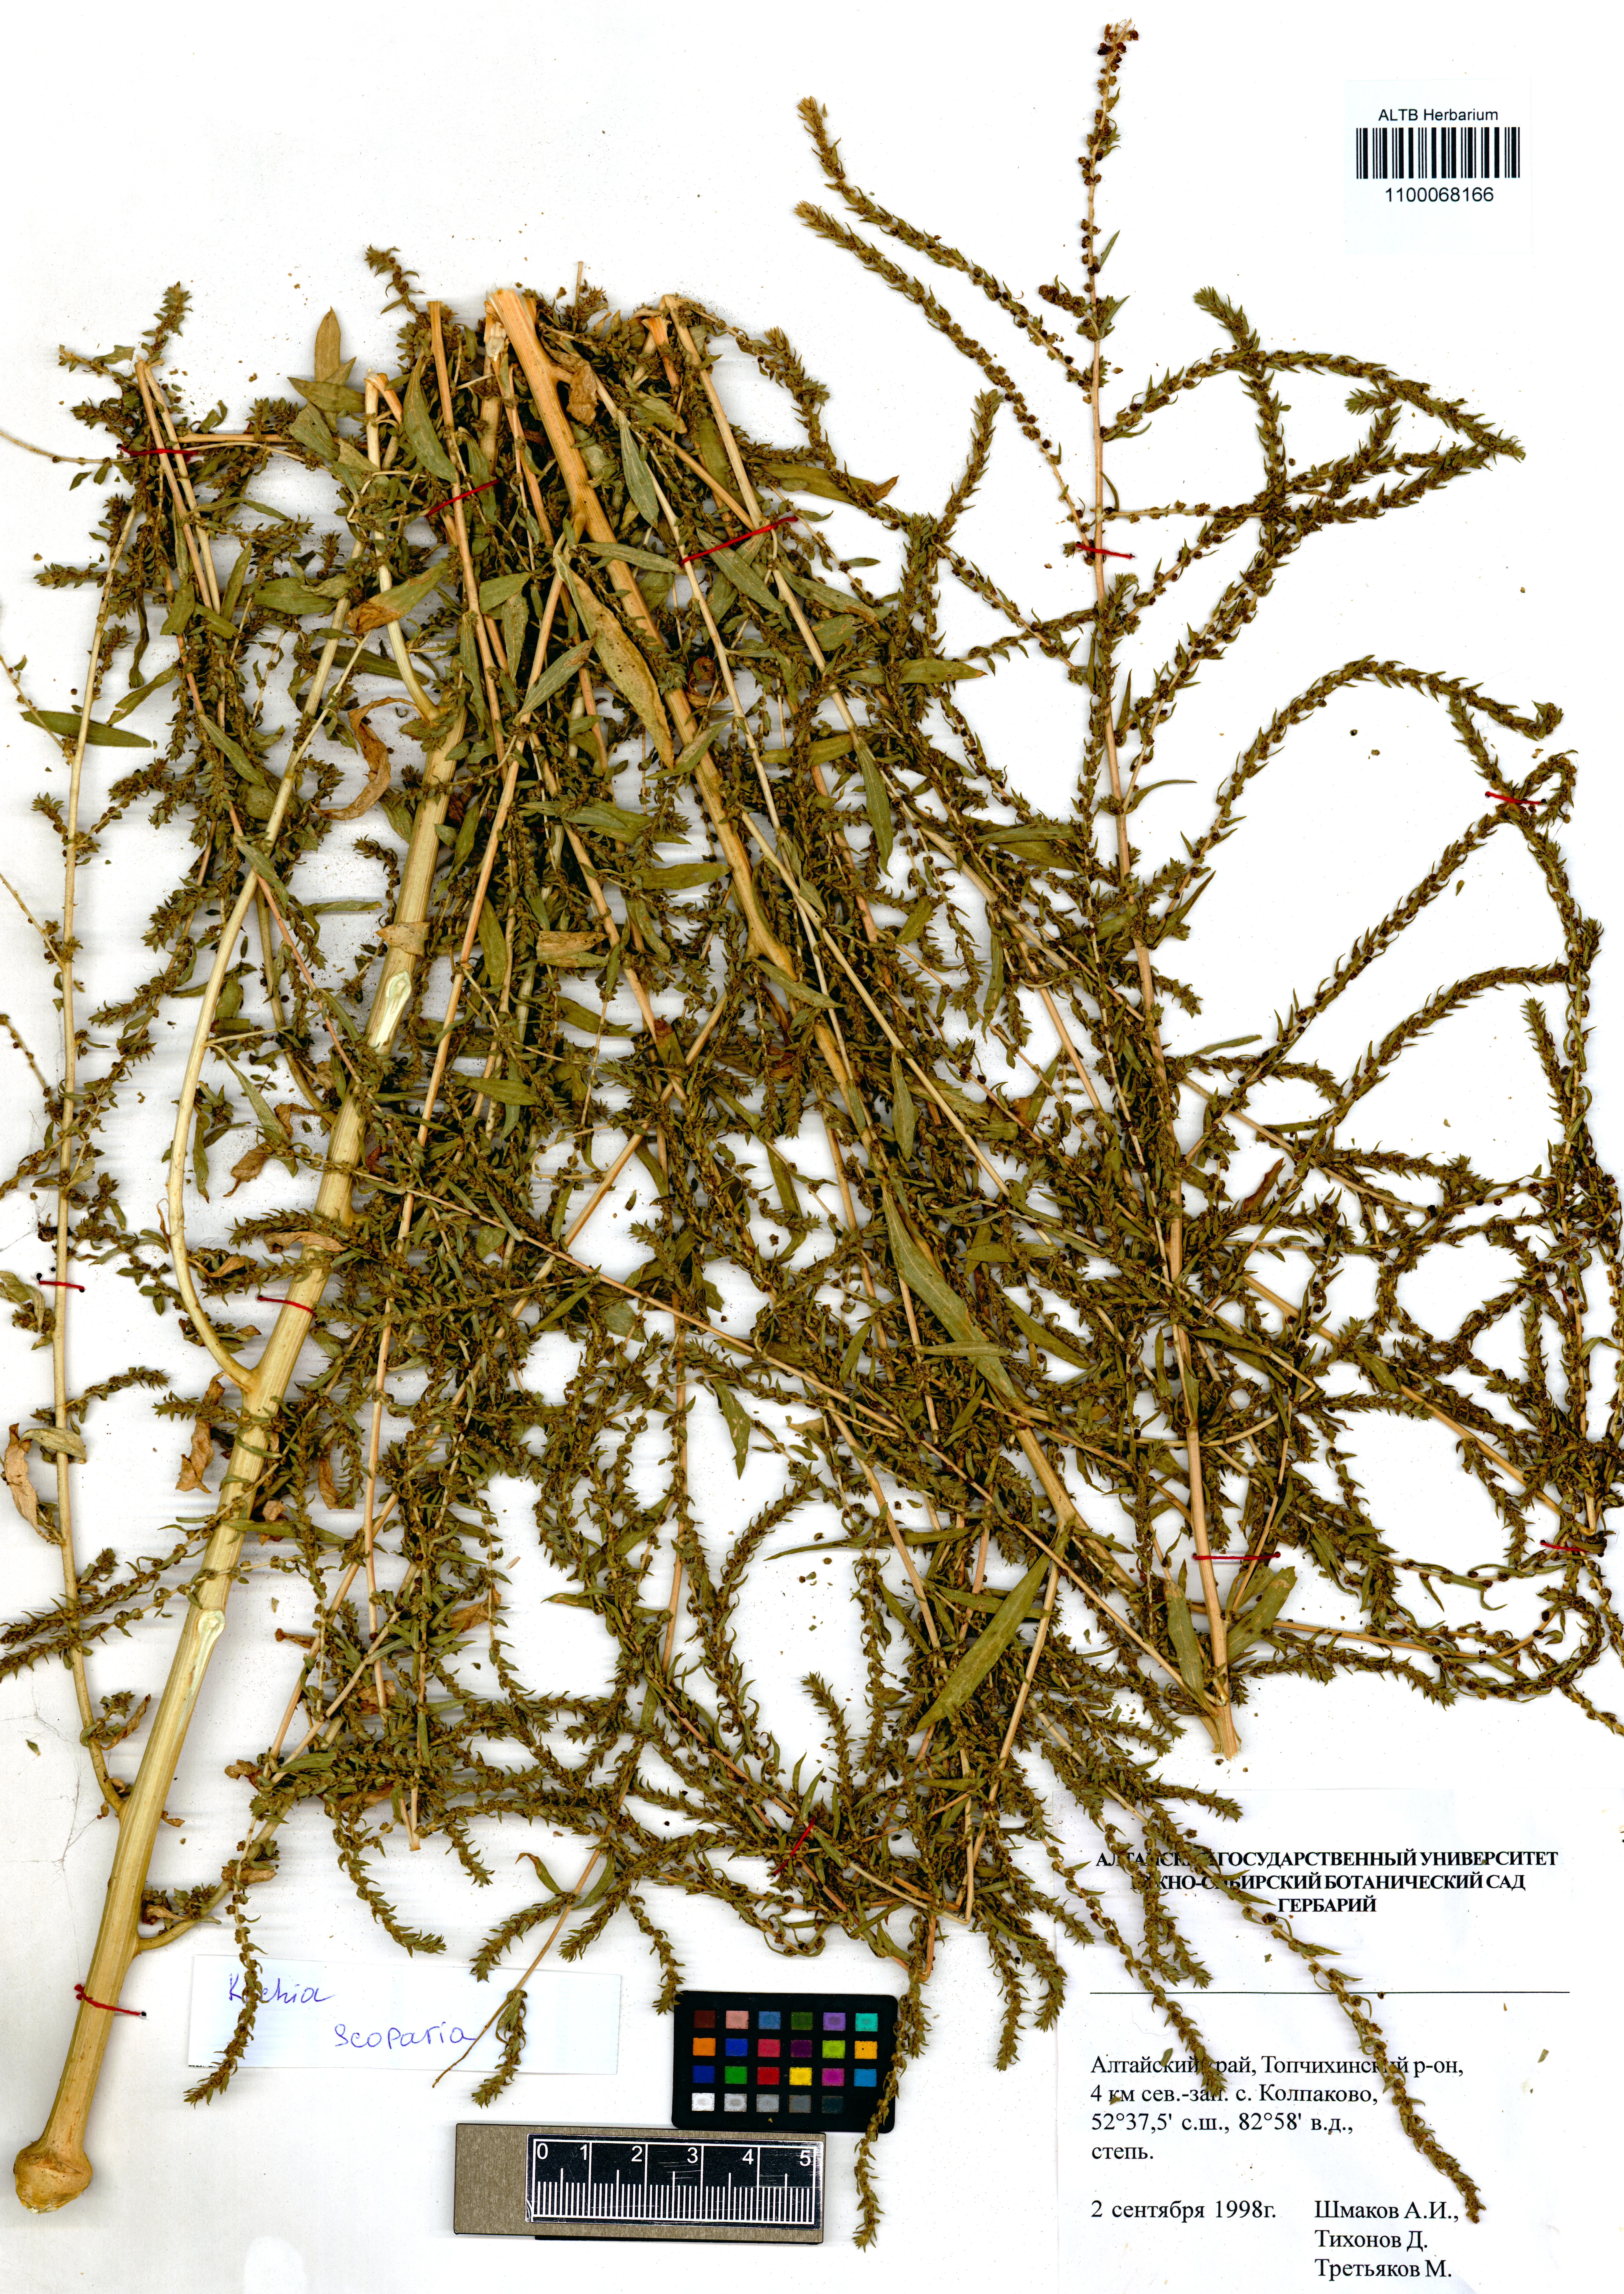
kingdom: Plantae
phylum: Tracheophyta
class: Magnoliopsida
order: Caryophyllales
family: Amaranthaceae
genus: Bassia
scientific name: Bassia scoparia
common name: Belvedere
